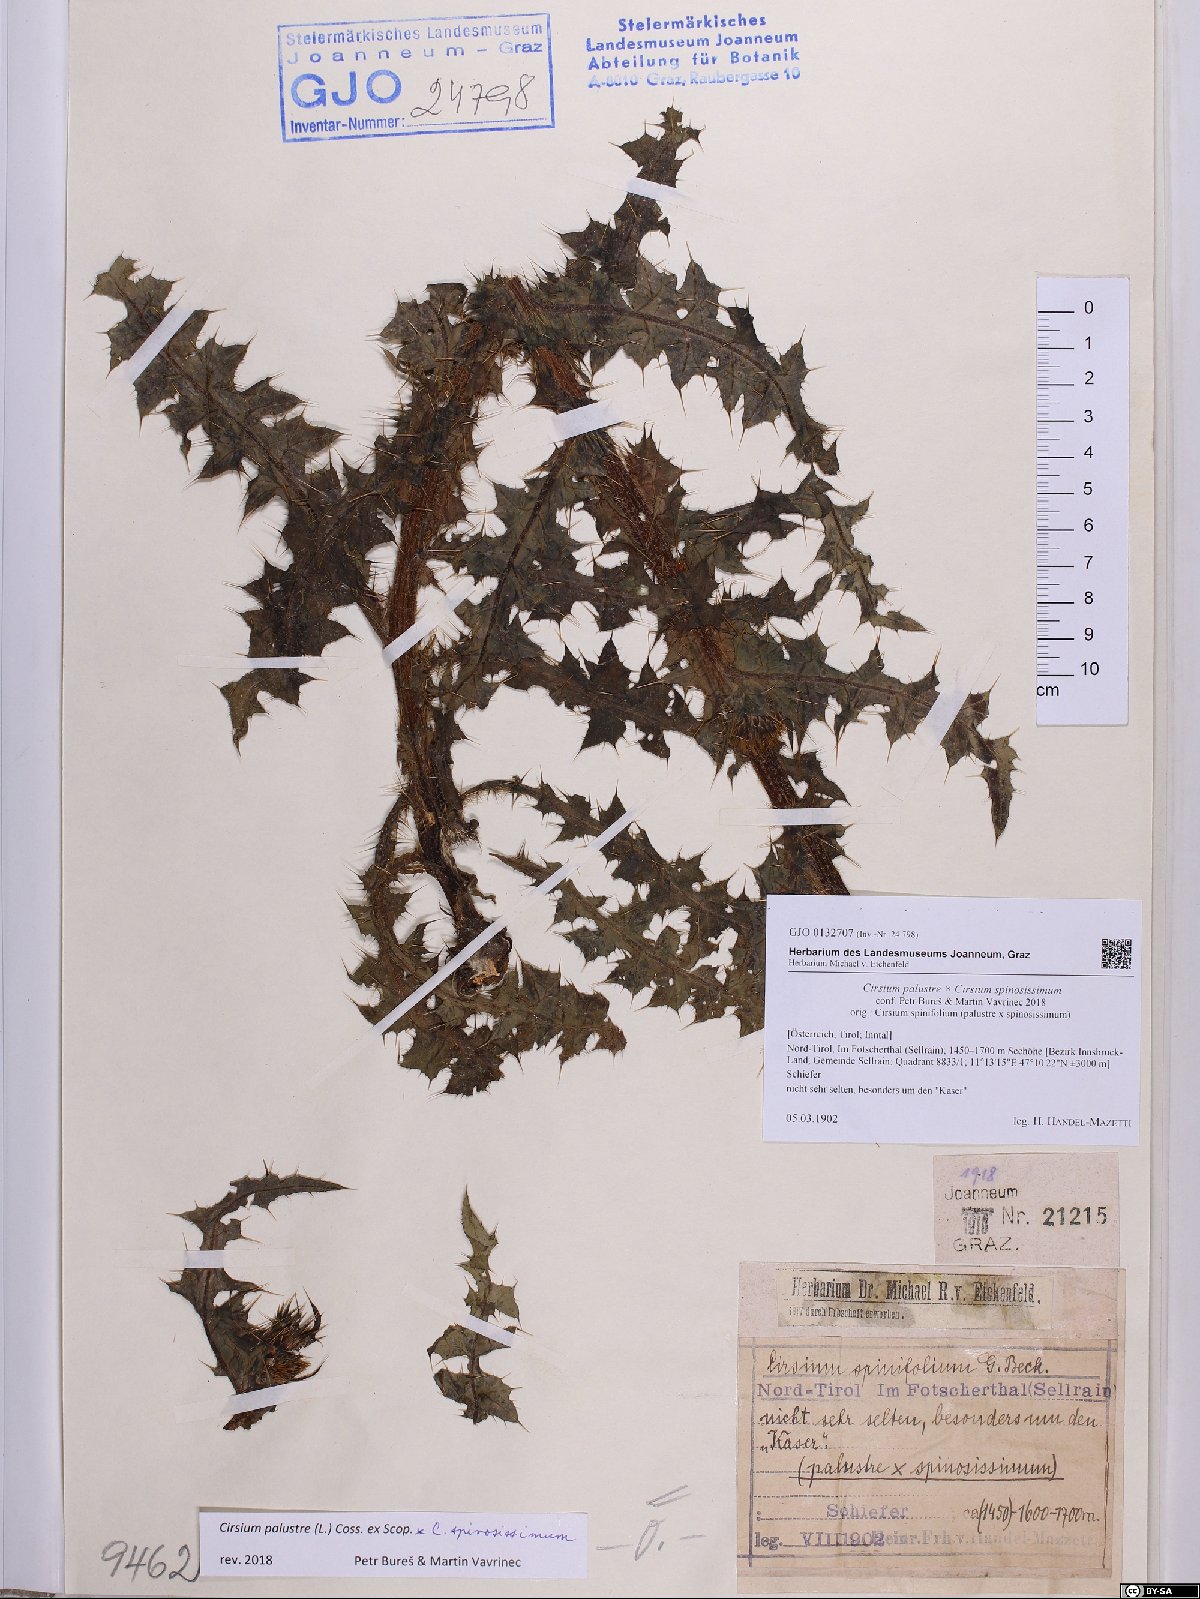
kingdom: Plantae
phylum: Tracheophyta
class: Magnoliopsida
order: Asterales
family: Asteraceae
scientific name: Asteraceae
